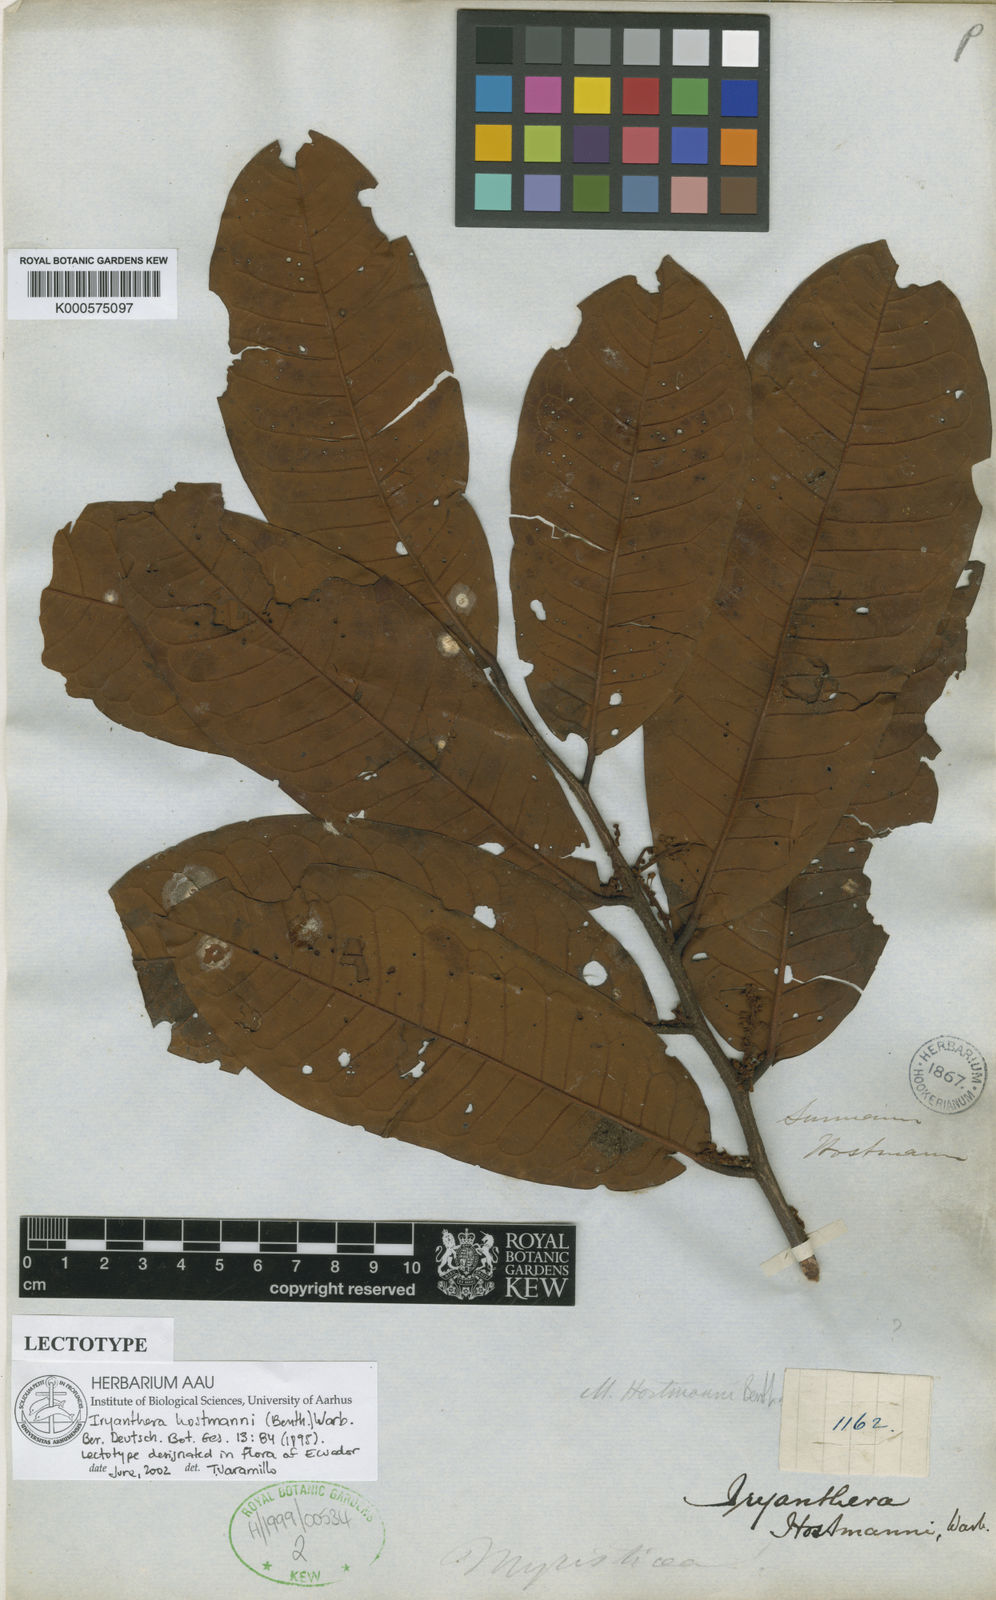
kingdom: Plantae
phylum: Tracheophyta
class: Magnoliopsida
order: Magnoliales
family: Myristicaceae
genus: Iryanthera
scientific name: Iryanthera hostmannii
